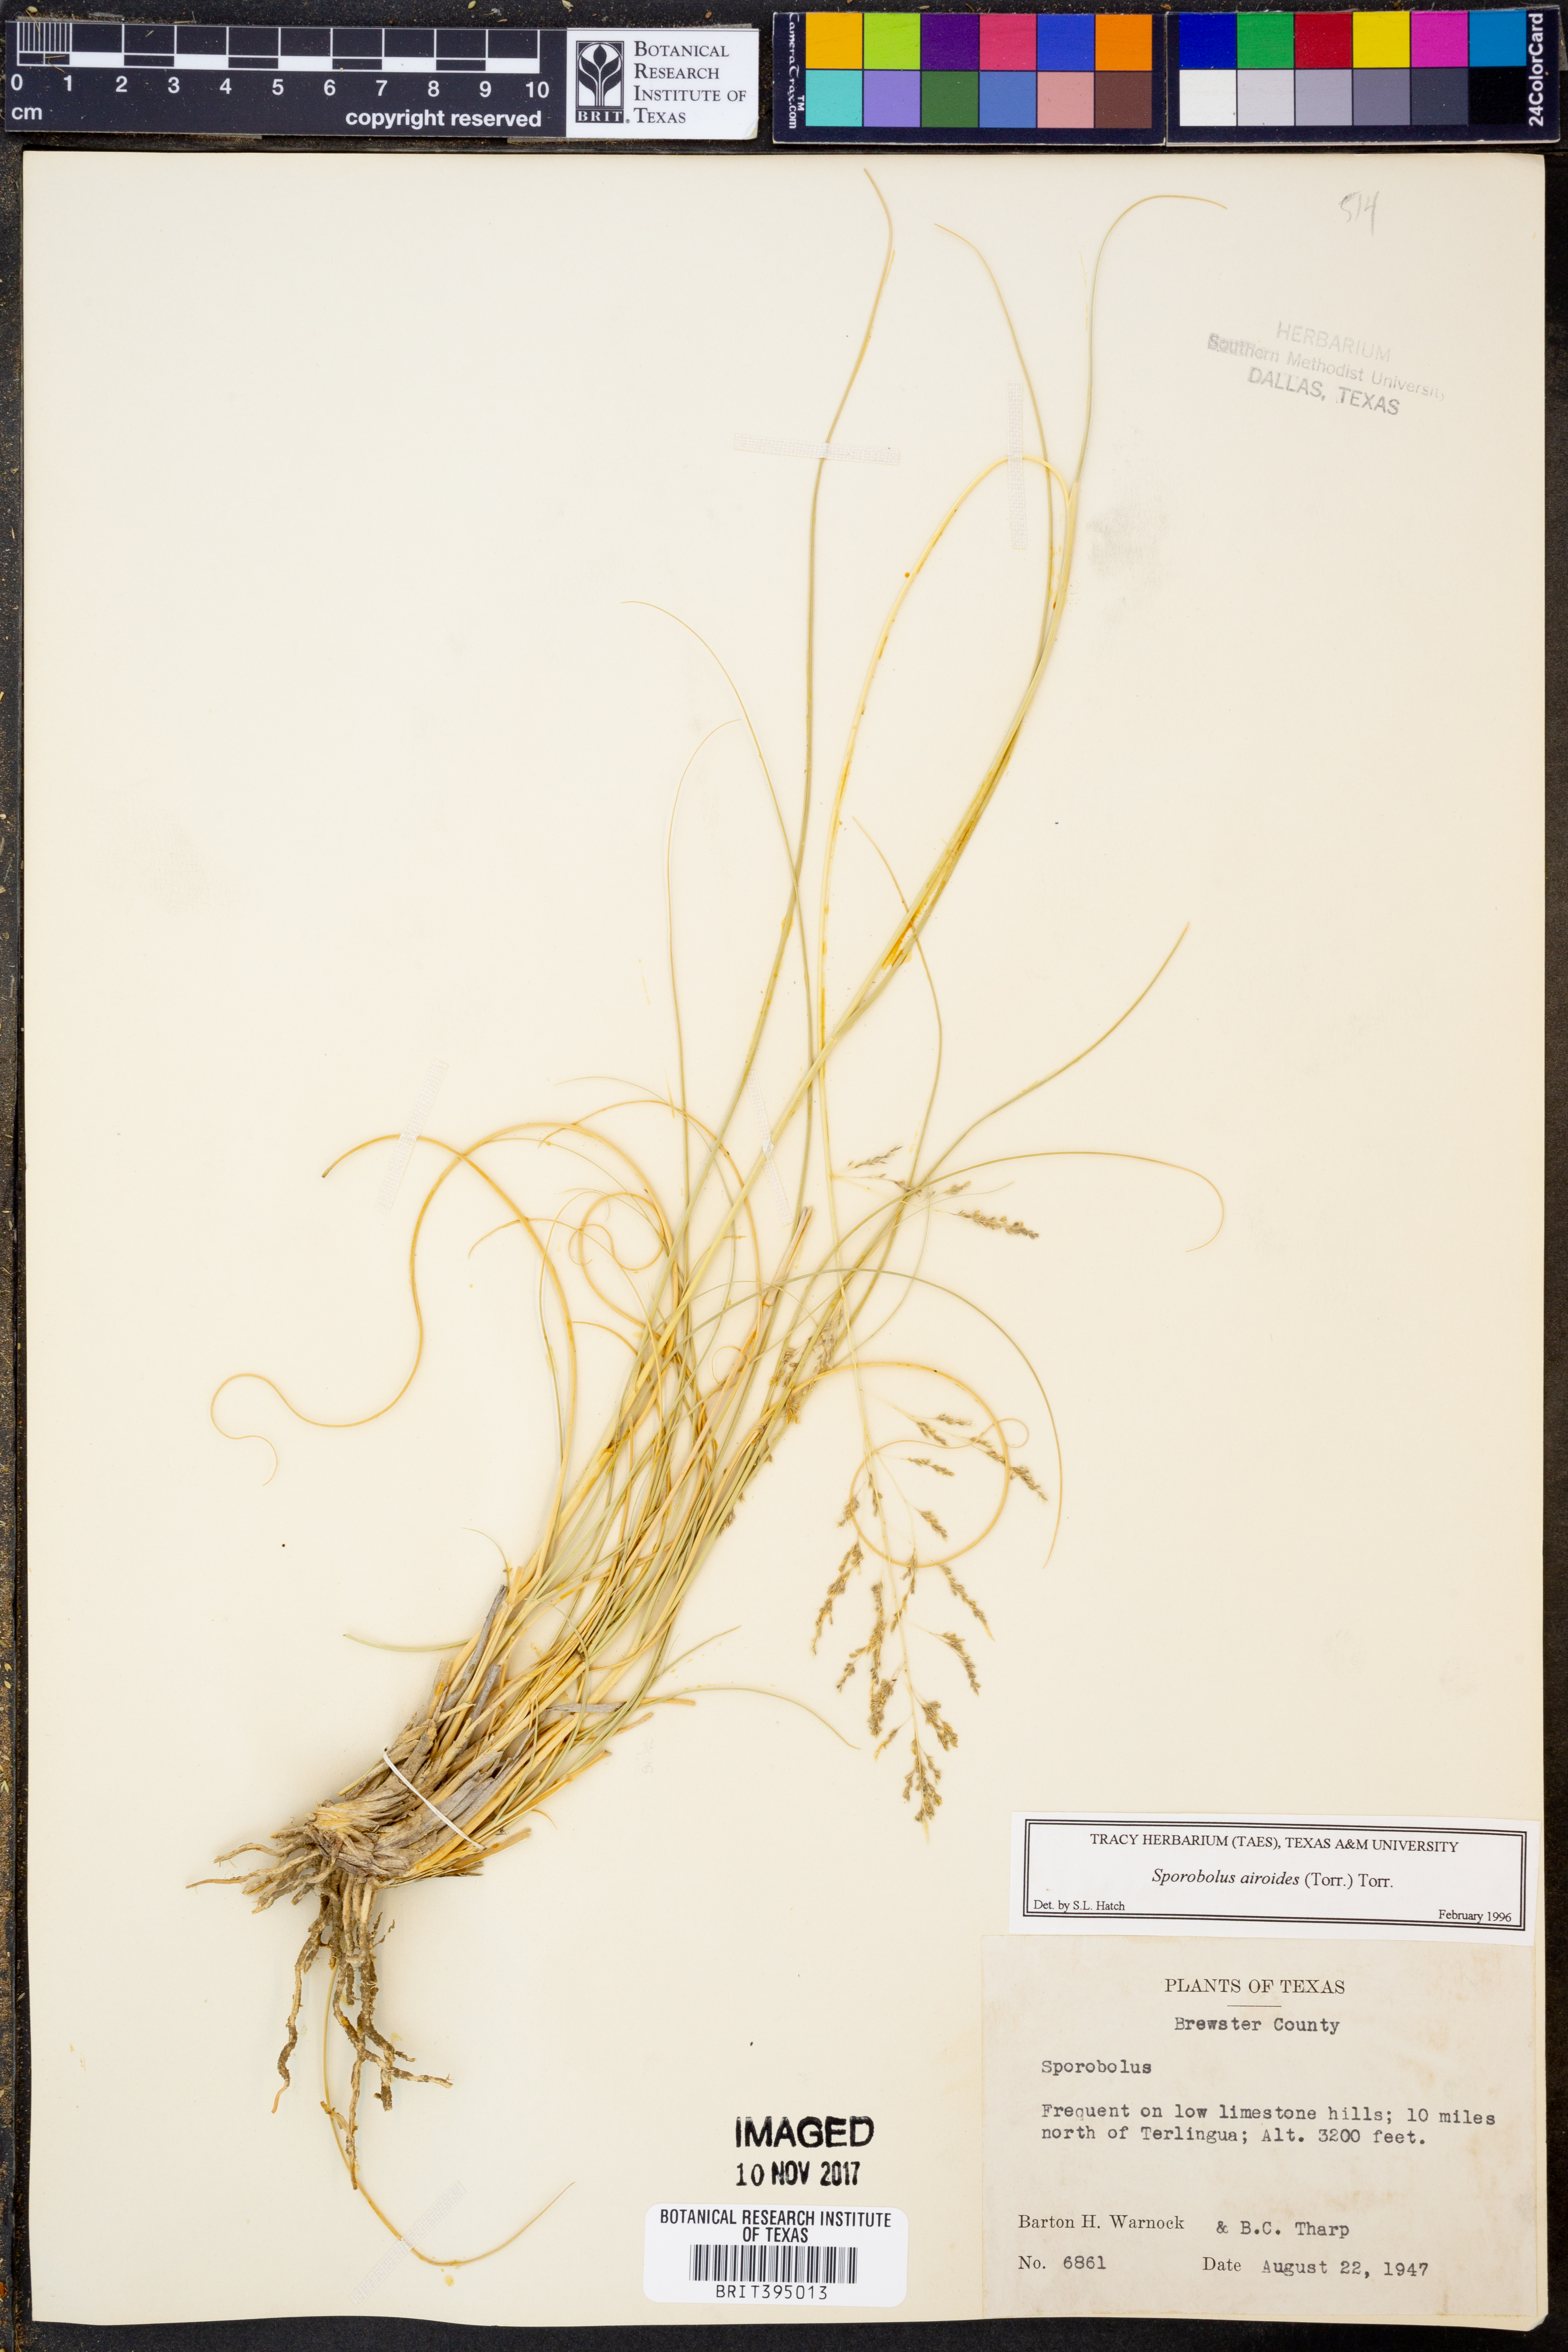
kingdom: Plantae
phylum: Tracheophyta
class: Liliopsida
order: Poales
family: Poaceae
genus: Sporobolus
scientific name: Sporobolus airoides
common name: Alkali sacaton
